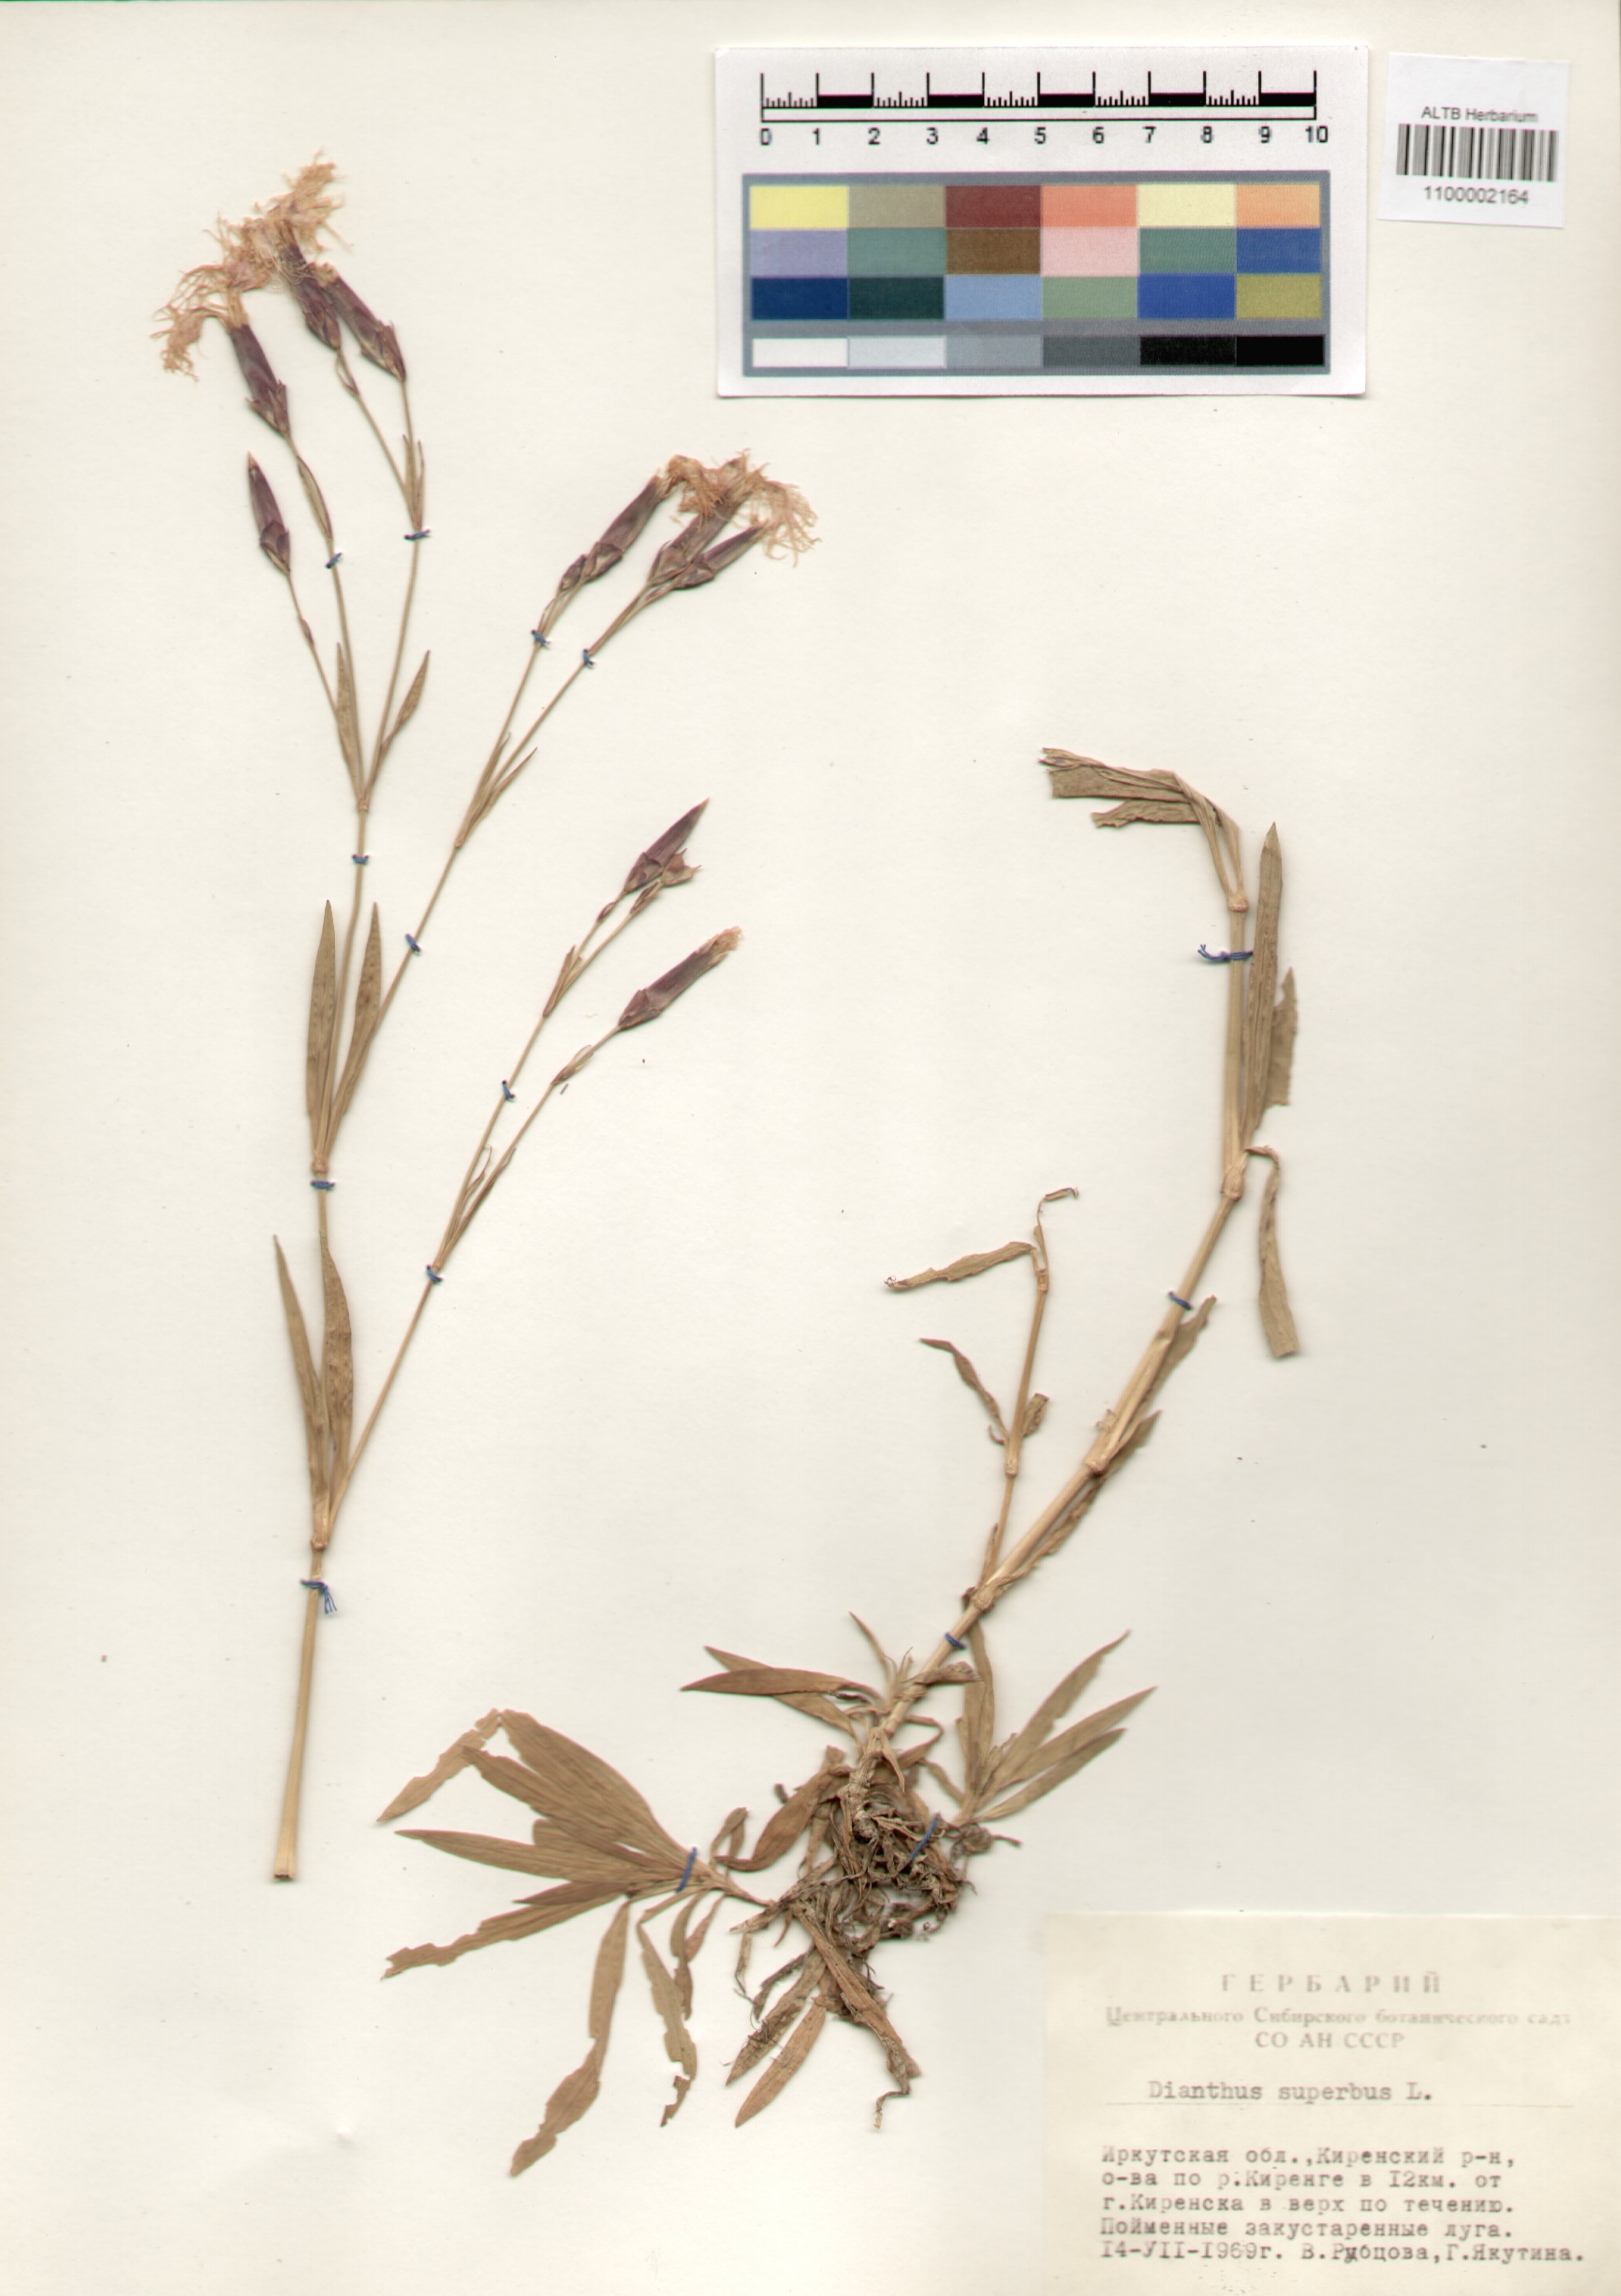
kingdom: Plantae
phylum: Tracheophyta
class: Magnoliopsida
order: Caryophyllales
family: Caryophyllaceae
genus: Dianthus
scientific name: Dianthus superbus
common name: Fringed pink
